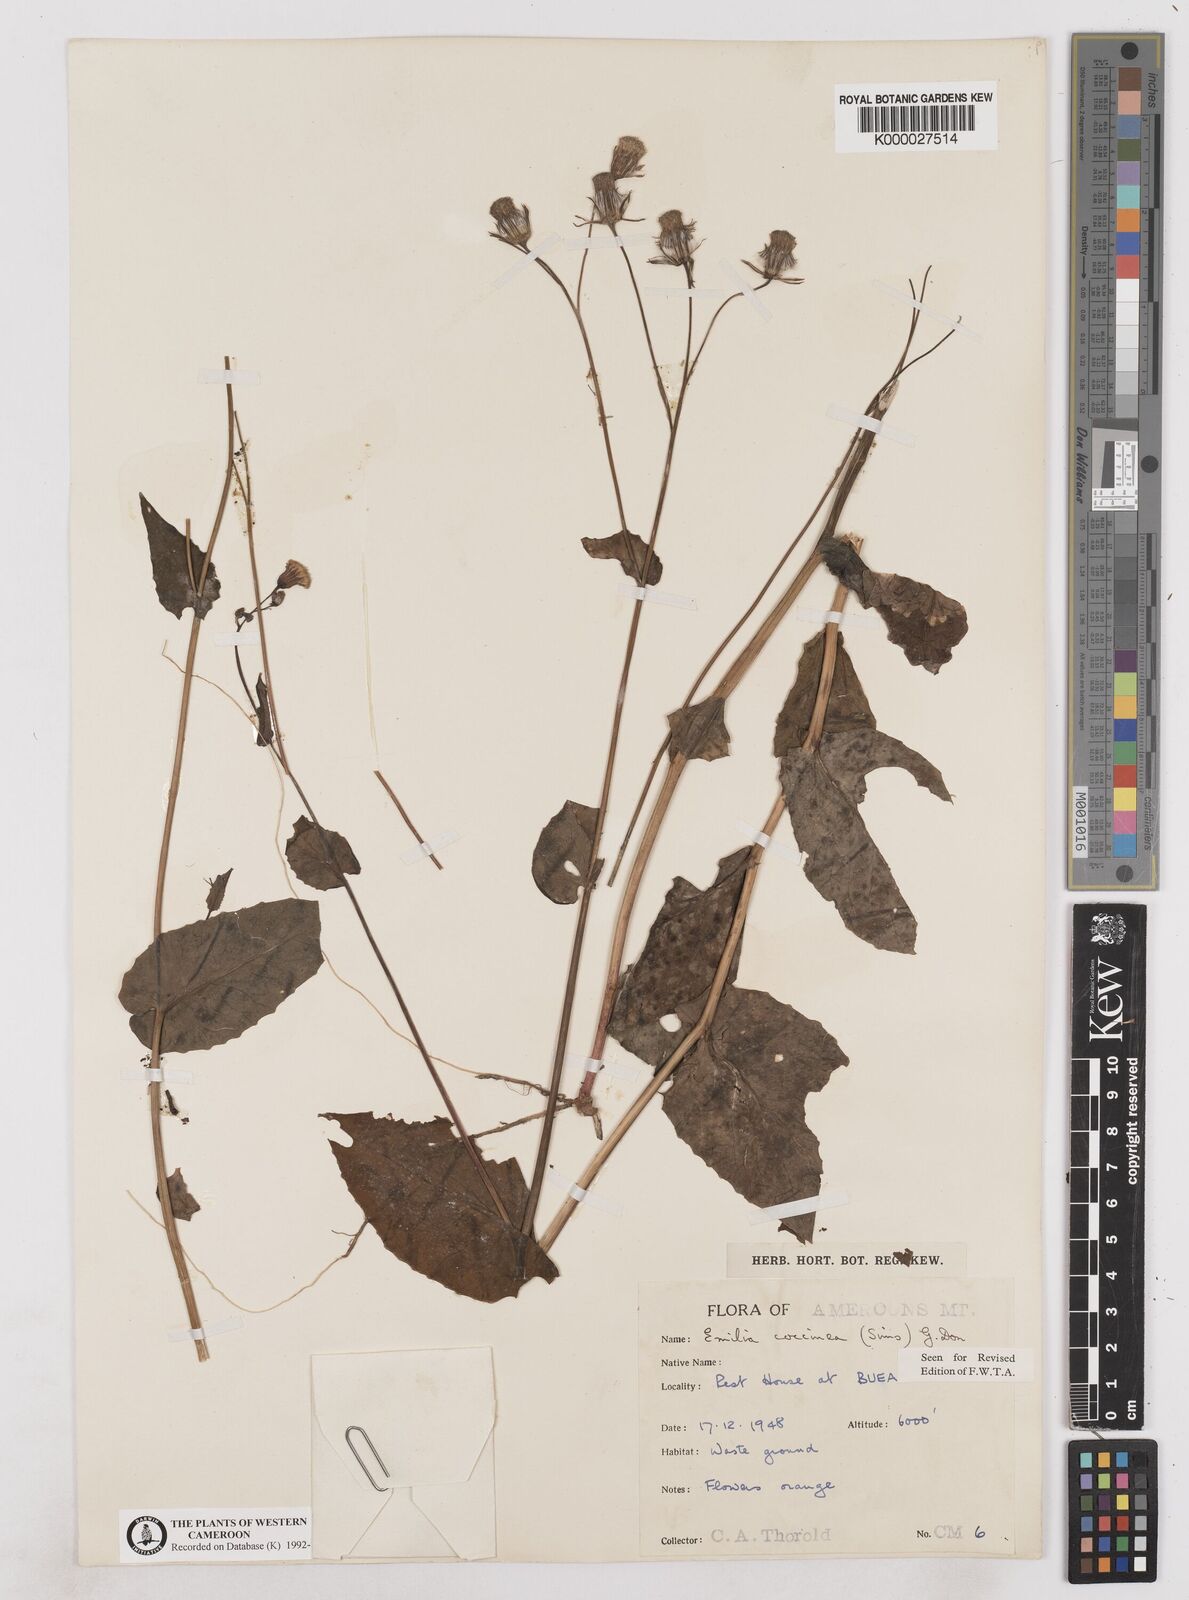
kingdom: Plantae
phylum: Tracheophyta
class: Magnoliopsida
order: Asterales
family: Asteraceae
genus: Emilia
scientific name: Emilia lisowskiana
